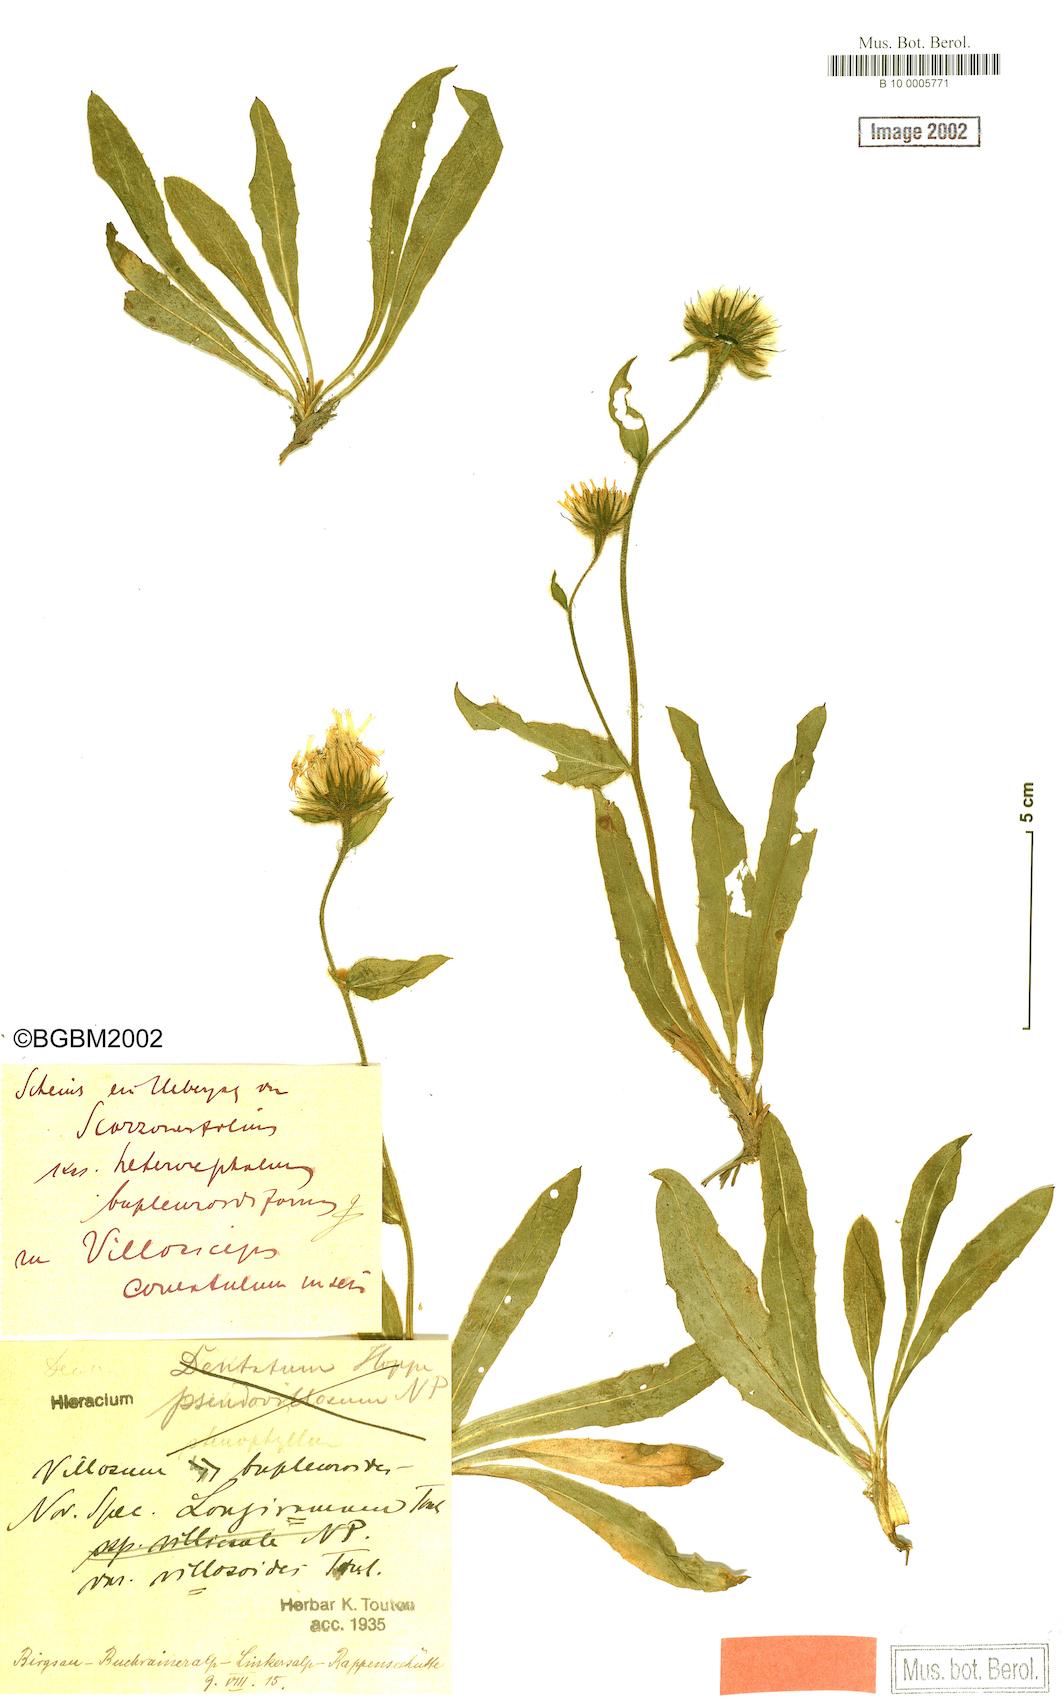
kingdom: Plantae
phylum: Tracheophyta
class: Magnoliopsida
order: Asterales
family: Asteraceae
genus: Hieracium
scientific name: Hieracium scorzonerifolium
